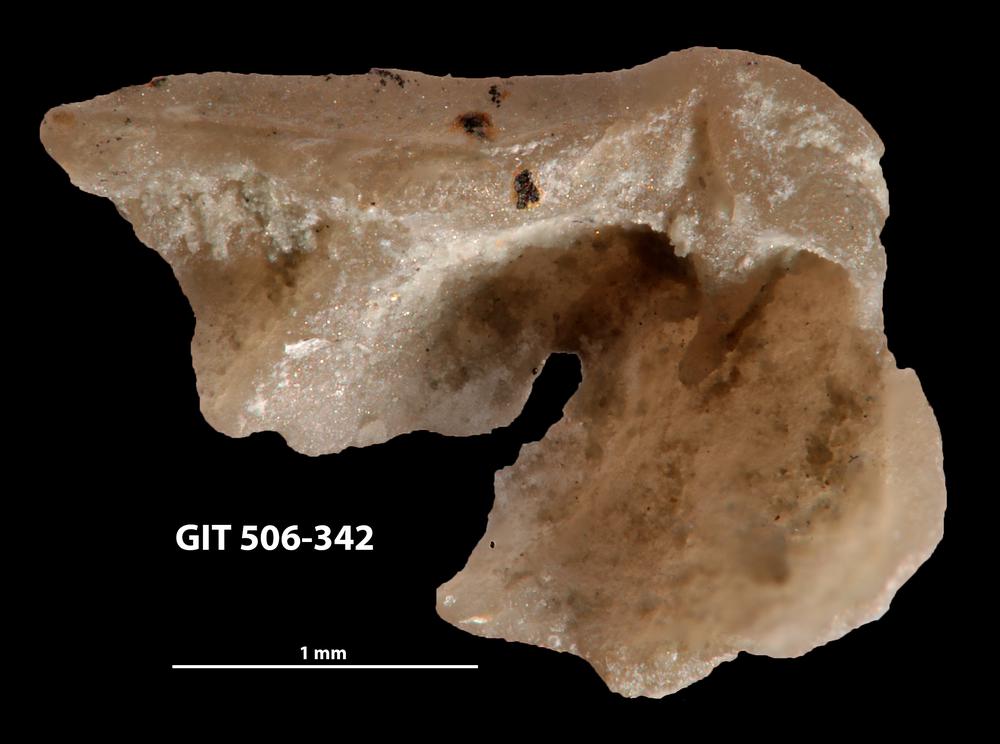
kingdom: Animalia
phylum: Brachiopoda
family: Oldhaminidae
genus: Eoplectodonta
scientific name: Eoplectodonta penkillensis
